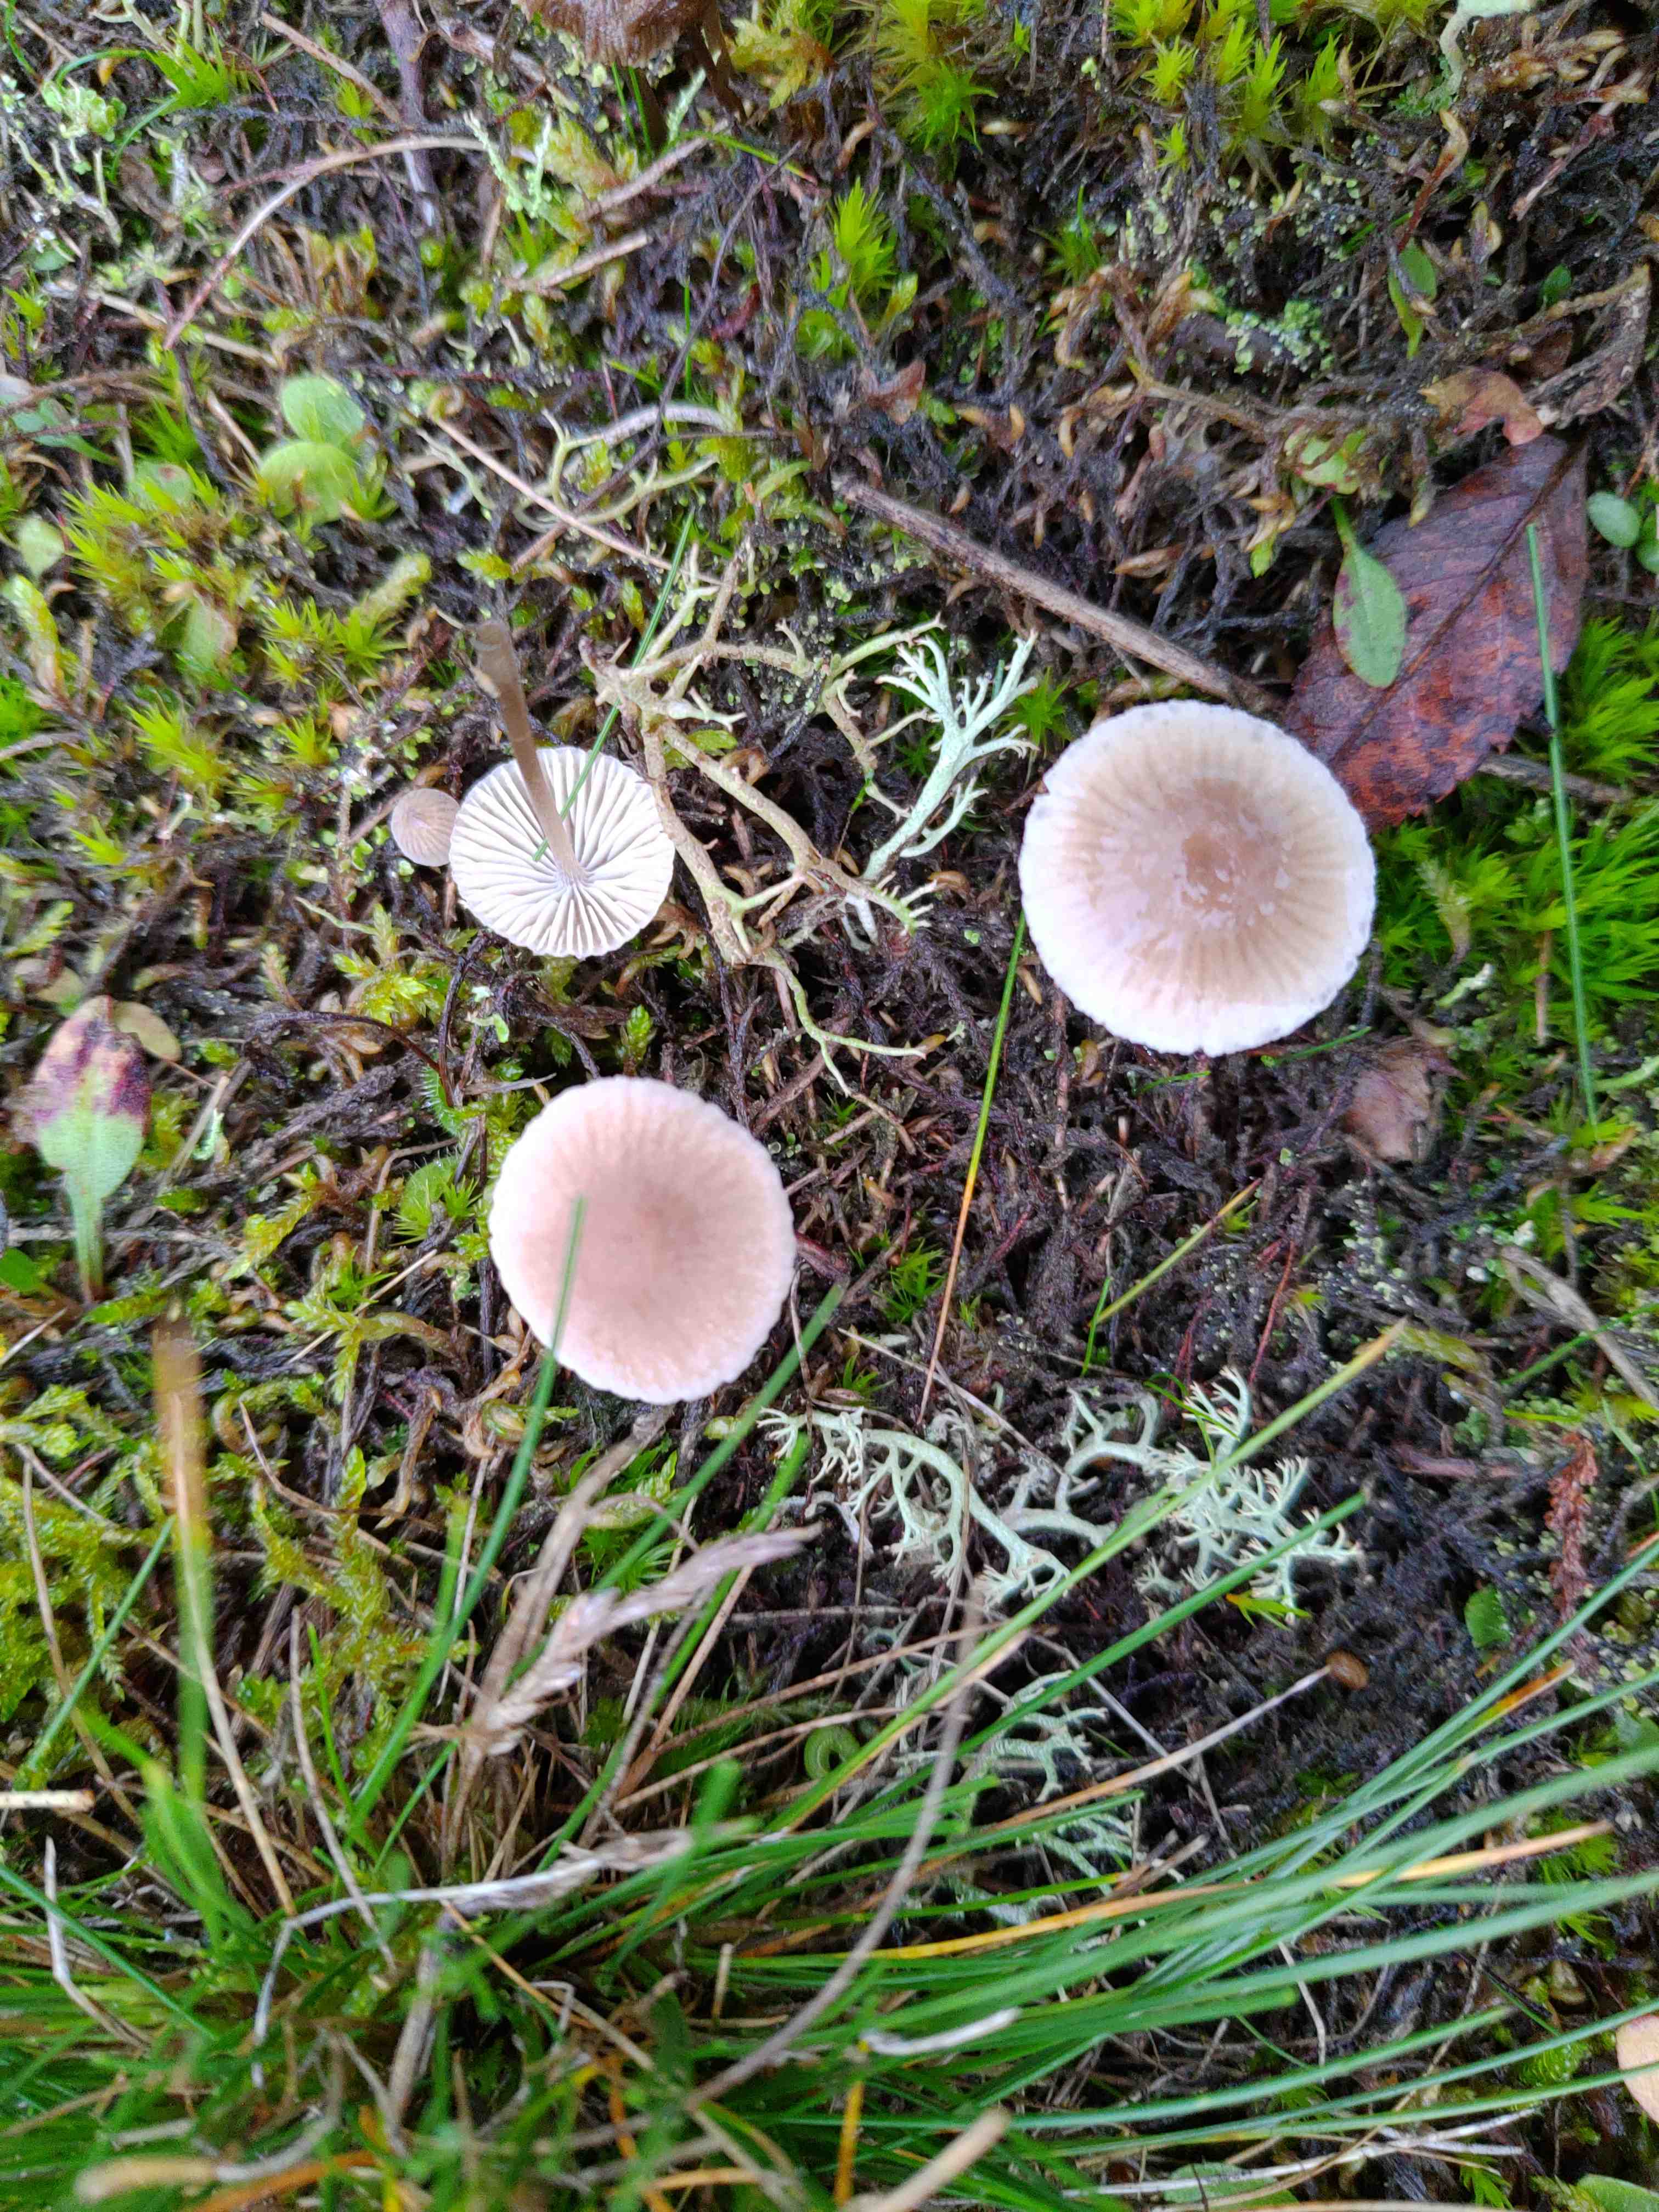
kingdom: Fungi
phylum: Basidiomycota
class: Agaricomycetes
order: Agaricales
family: Mycenaceae
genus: Mycena
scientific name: Mycena
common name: huesvamp
